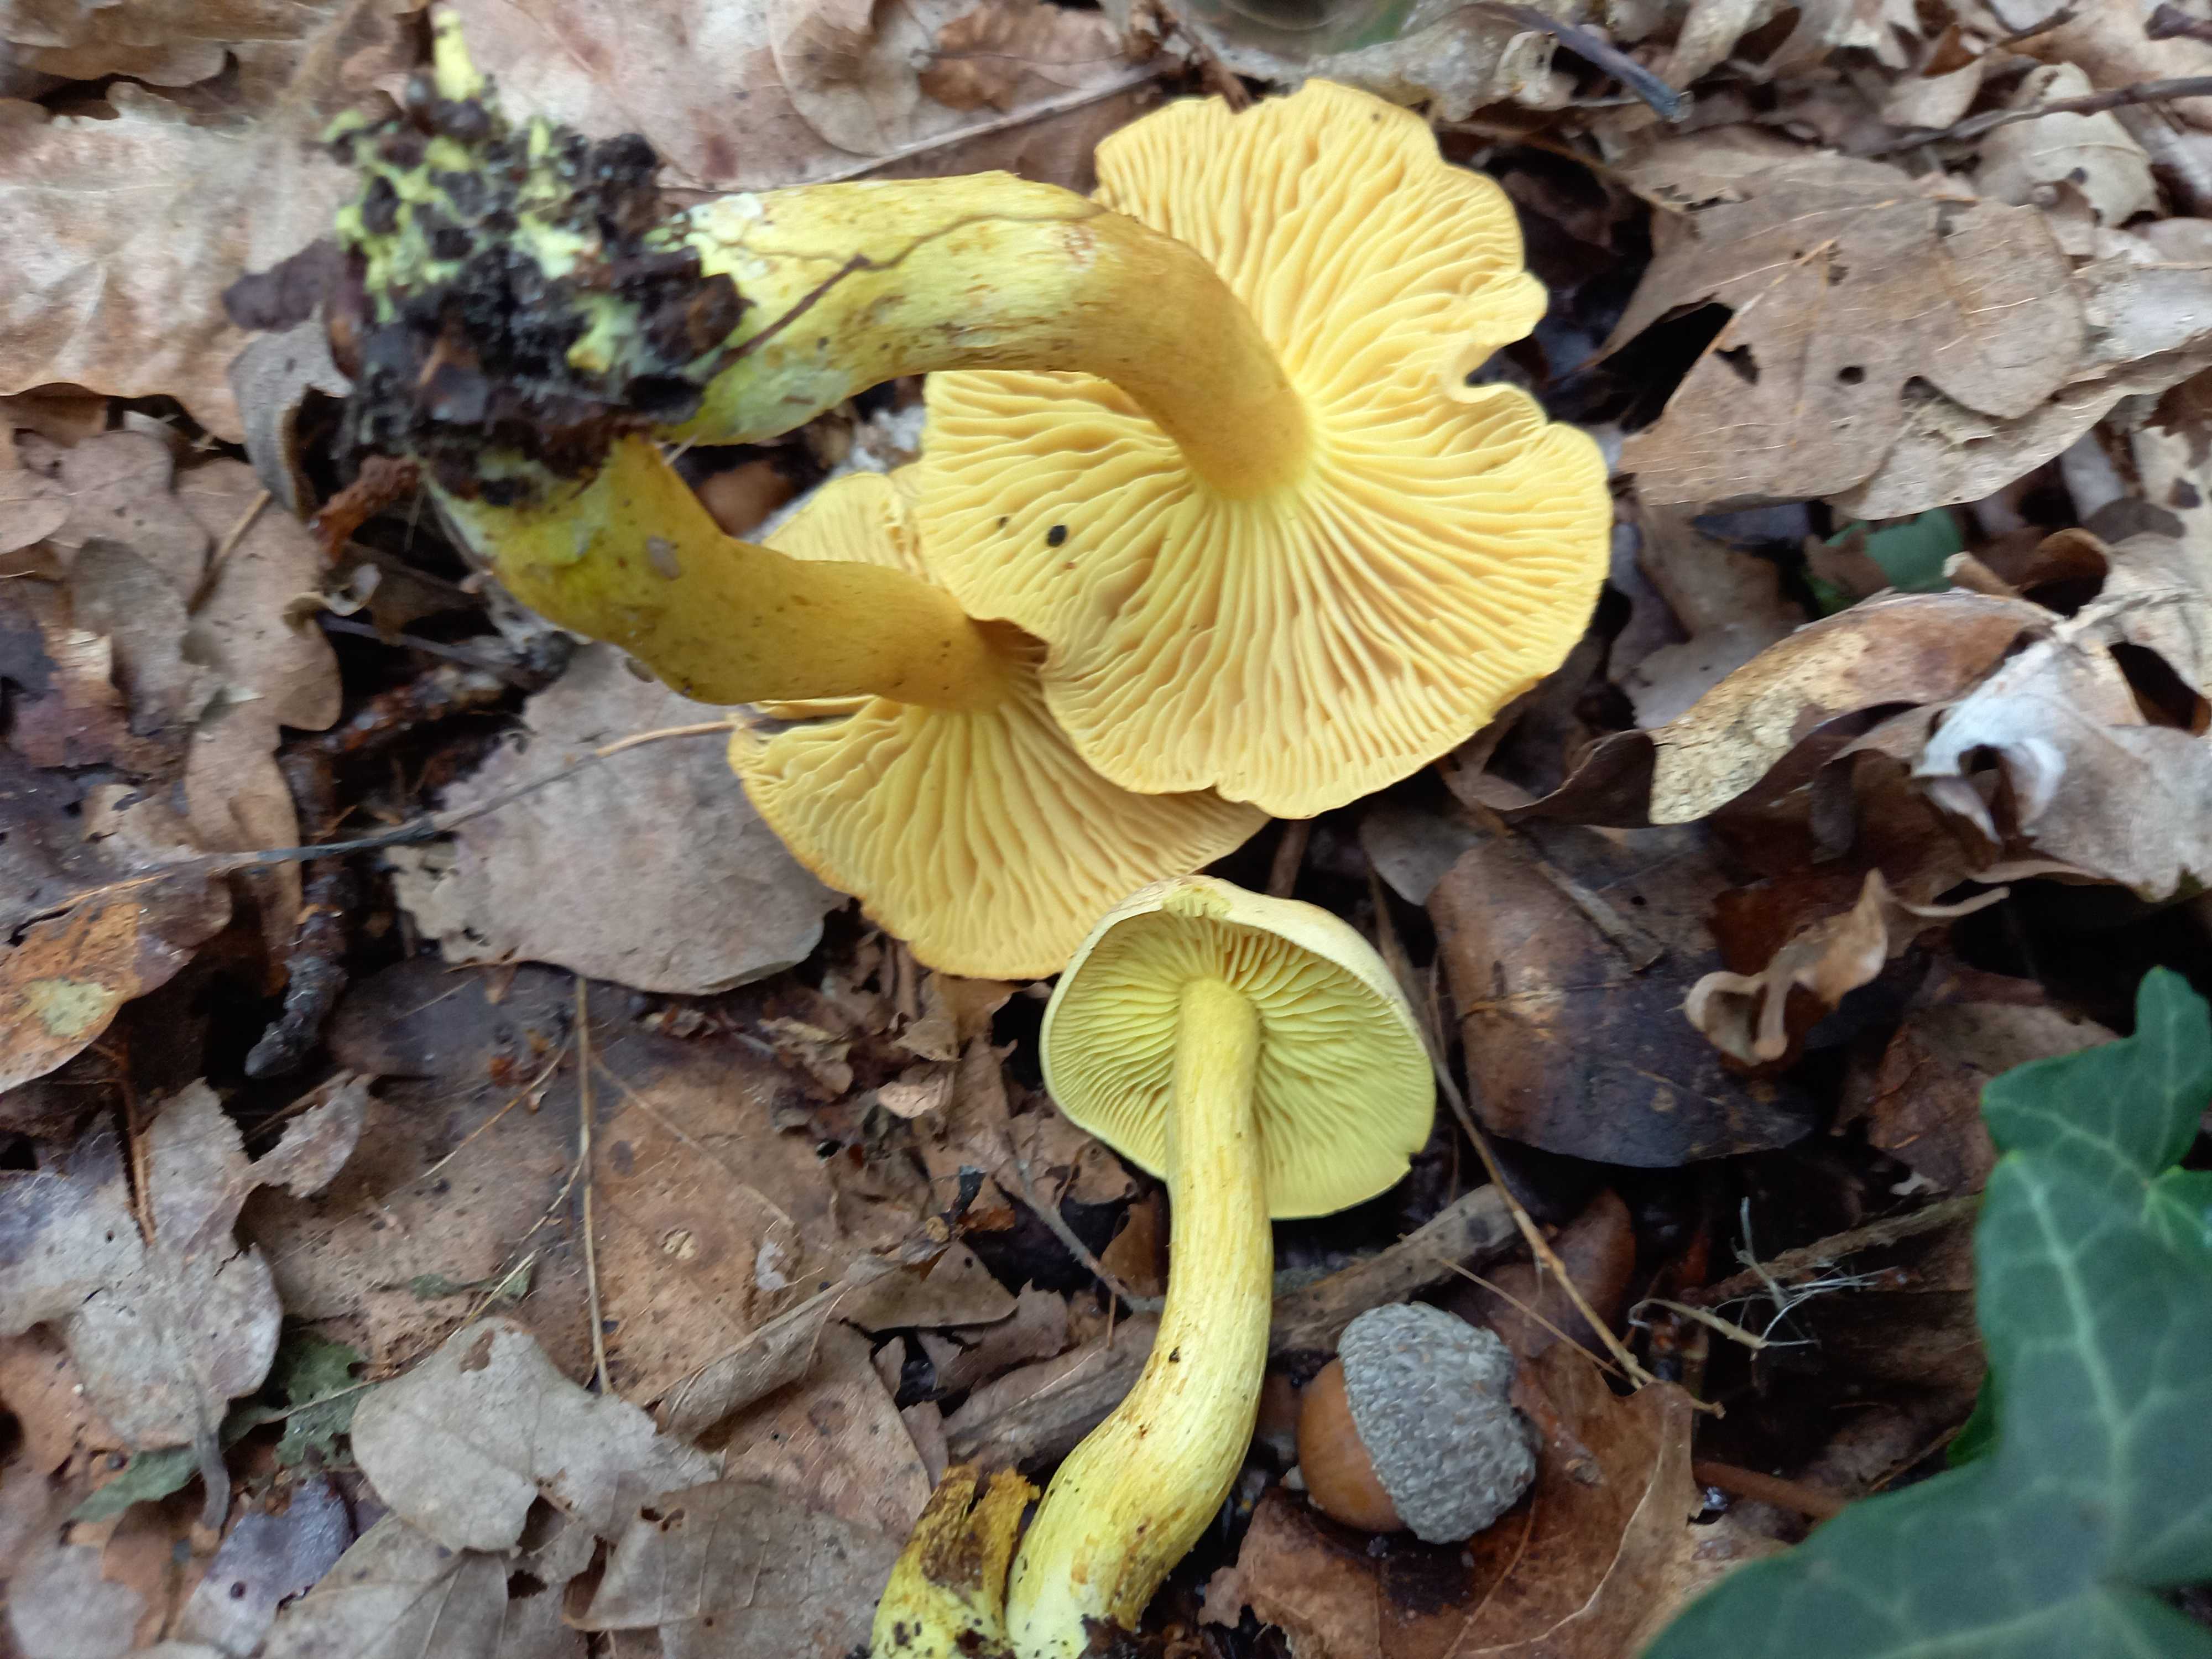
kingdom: Fungi
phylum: Basidiomycota
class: Agaricomycetes
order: Agaricales
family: Tricholomataceae
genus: Tricholoma
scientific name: Tricholoma sulphureum
